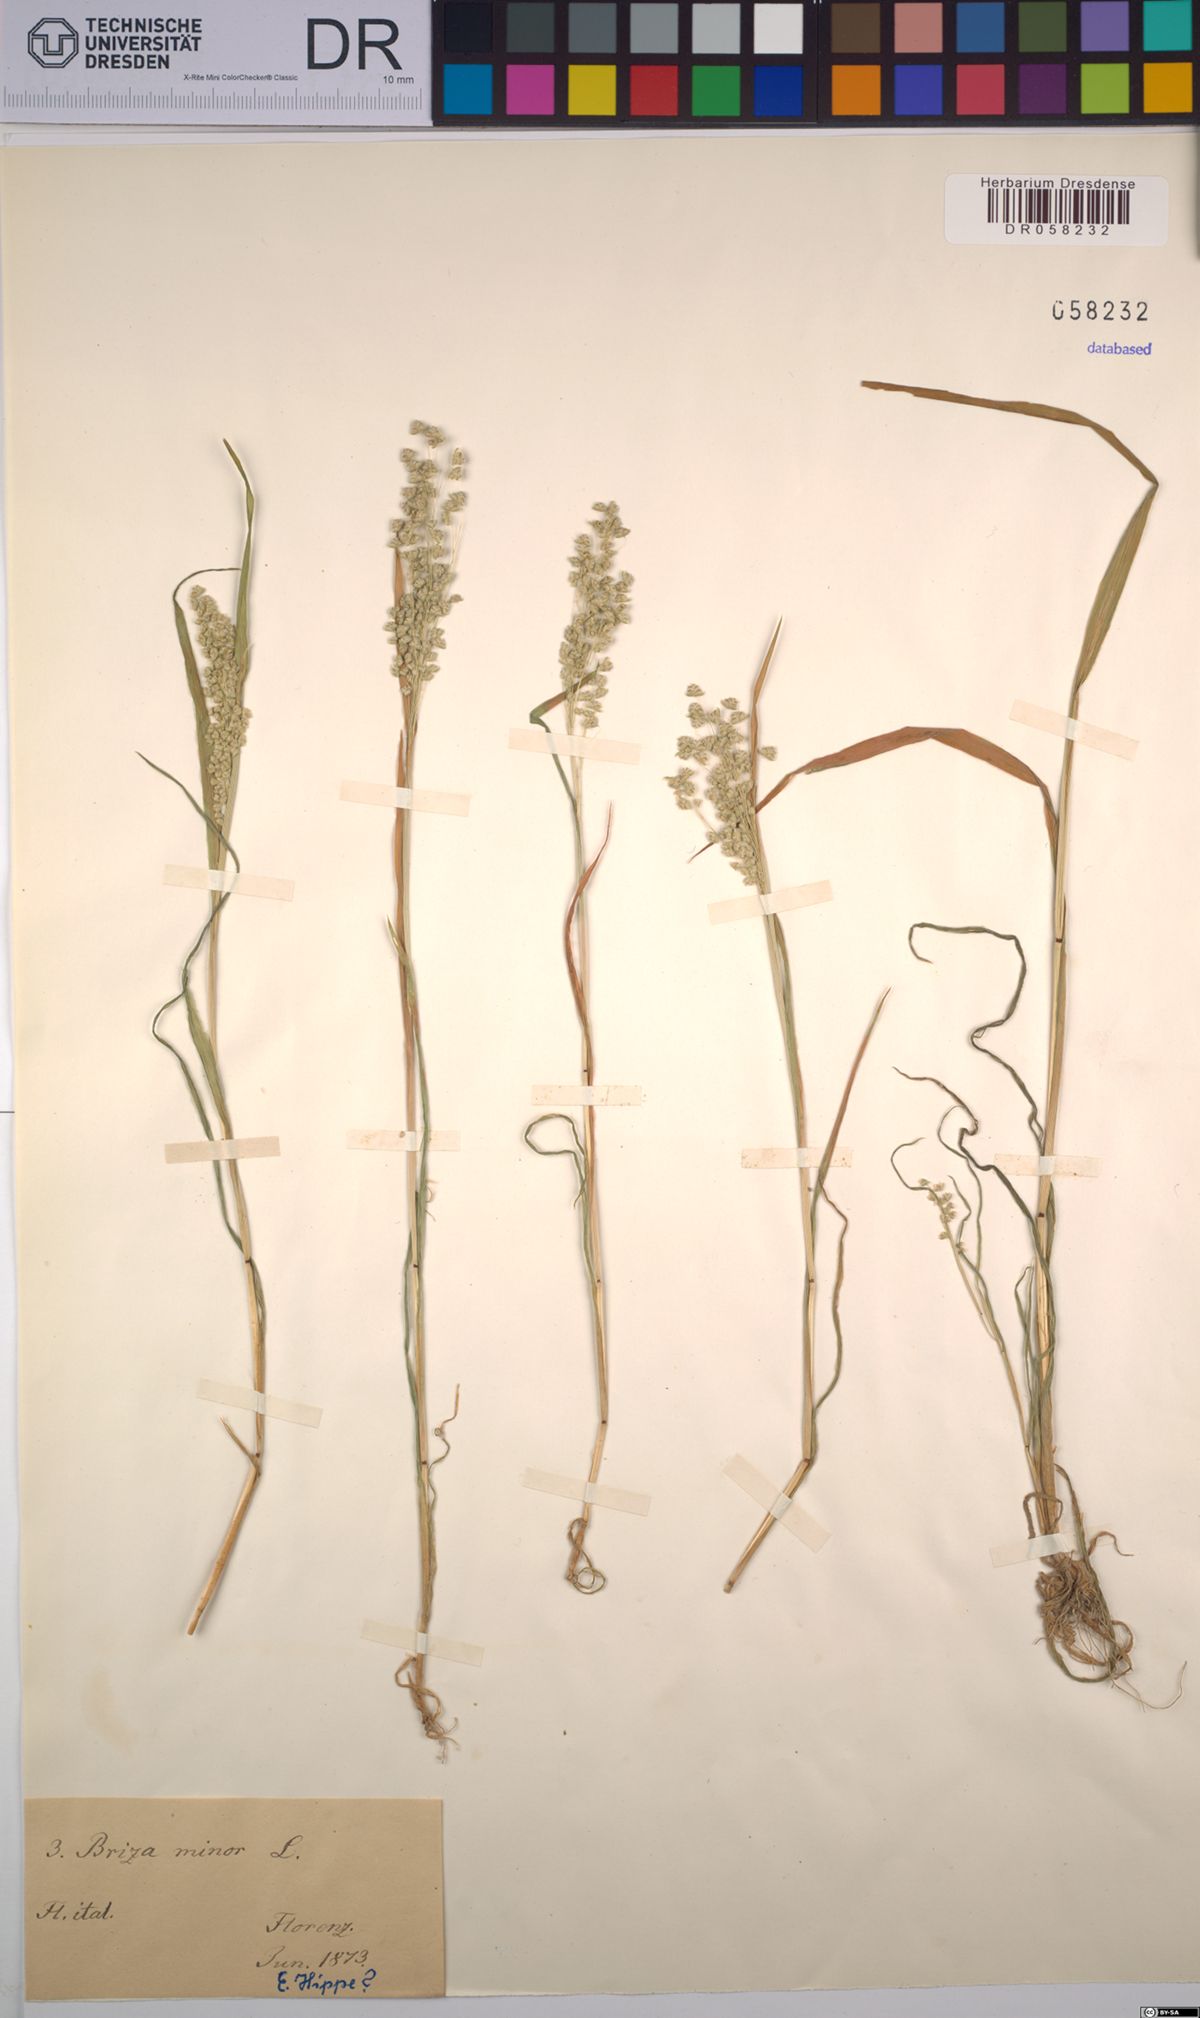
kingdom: Plantae
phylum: Tracheophyta
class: Liliopsida
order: Poales
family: Poaceae
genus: Briza
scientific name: Briza minor
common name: Lesser quaking-grass
